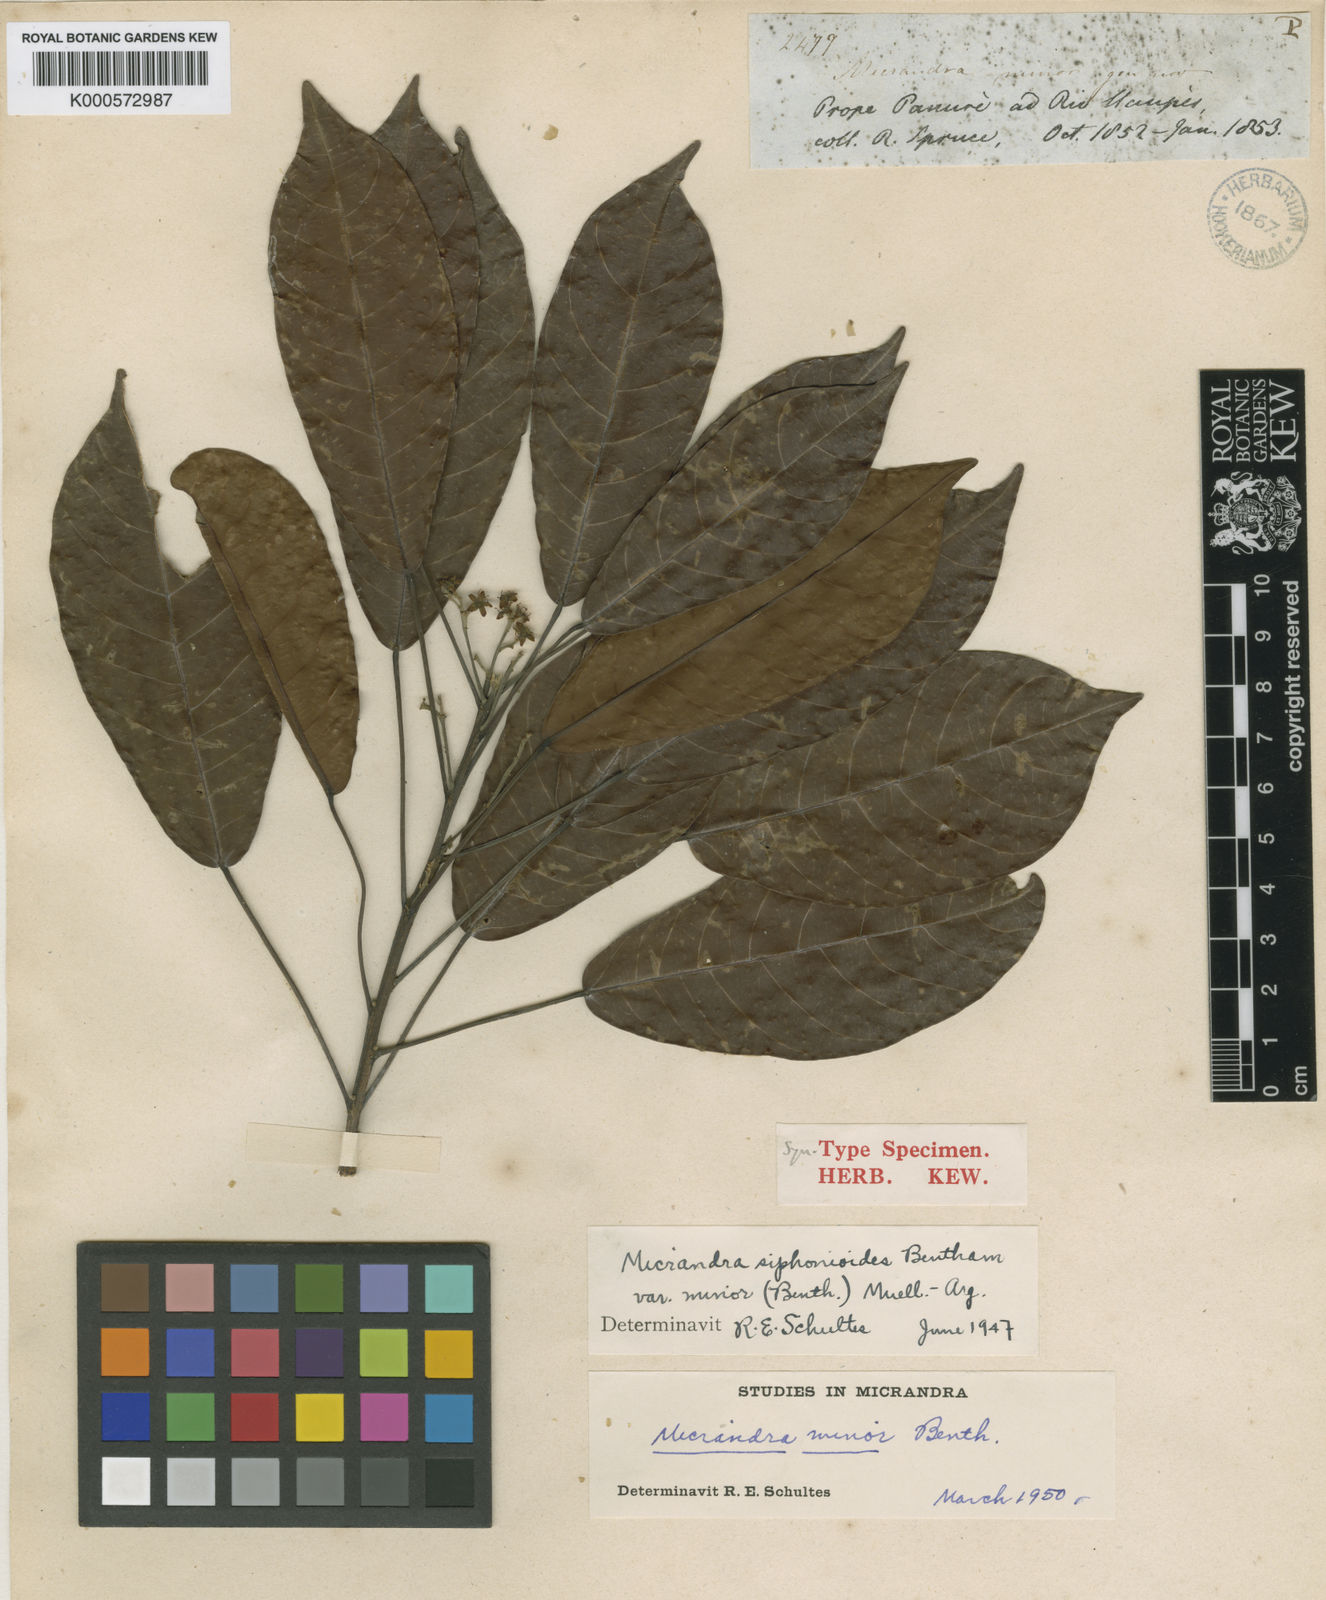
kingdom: Plantae
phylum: Tracheophyta
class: Magnoliopsida
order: Malpighiales
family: Euphorbiaceae
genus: Micrandra
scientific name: Micrandra siphonioides
